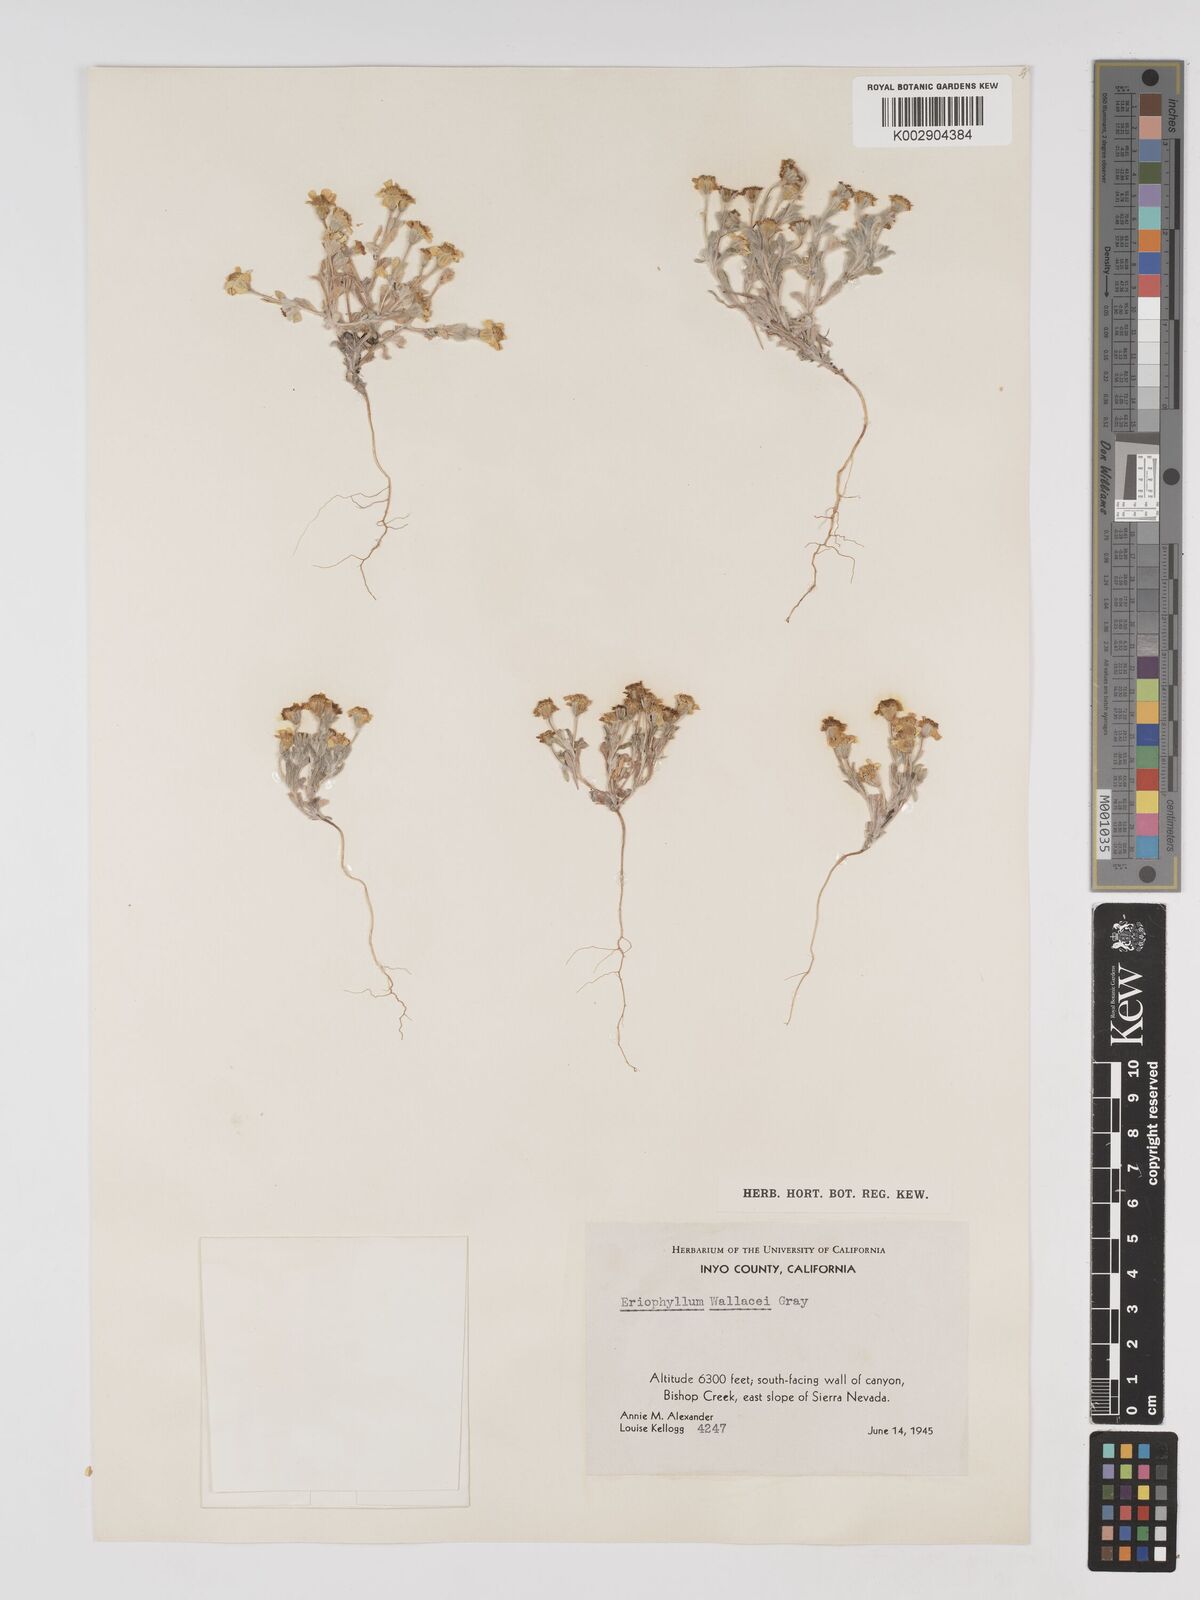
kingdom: Plantae
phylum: Tracheophyta
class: Magnoliopsida
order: Asterales
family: Asteraceae
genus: Eriophyllum
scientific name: Eriophyllum lanosum
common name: White easter-bonnets
